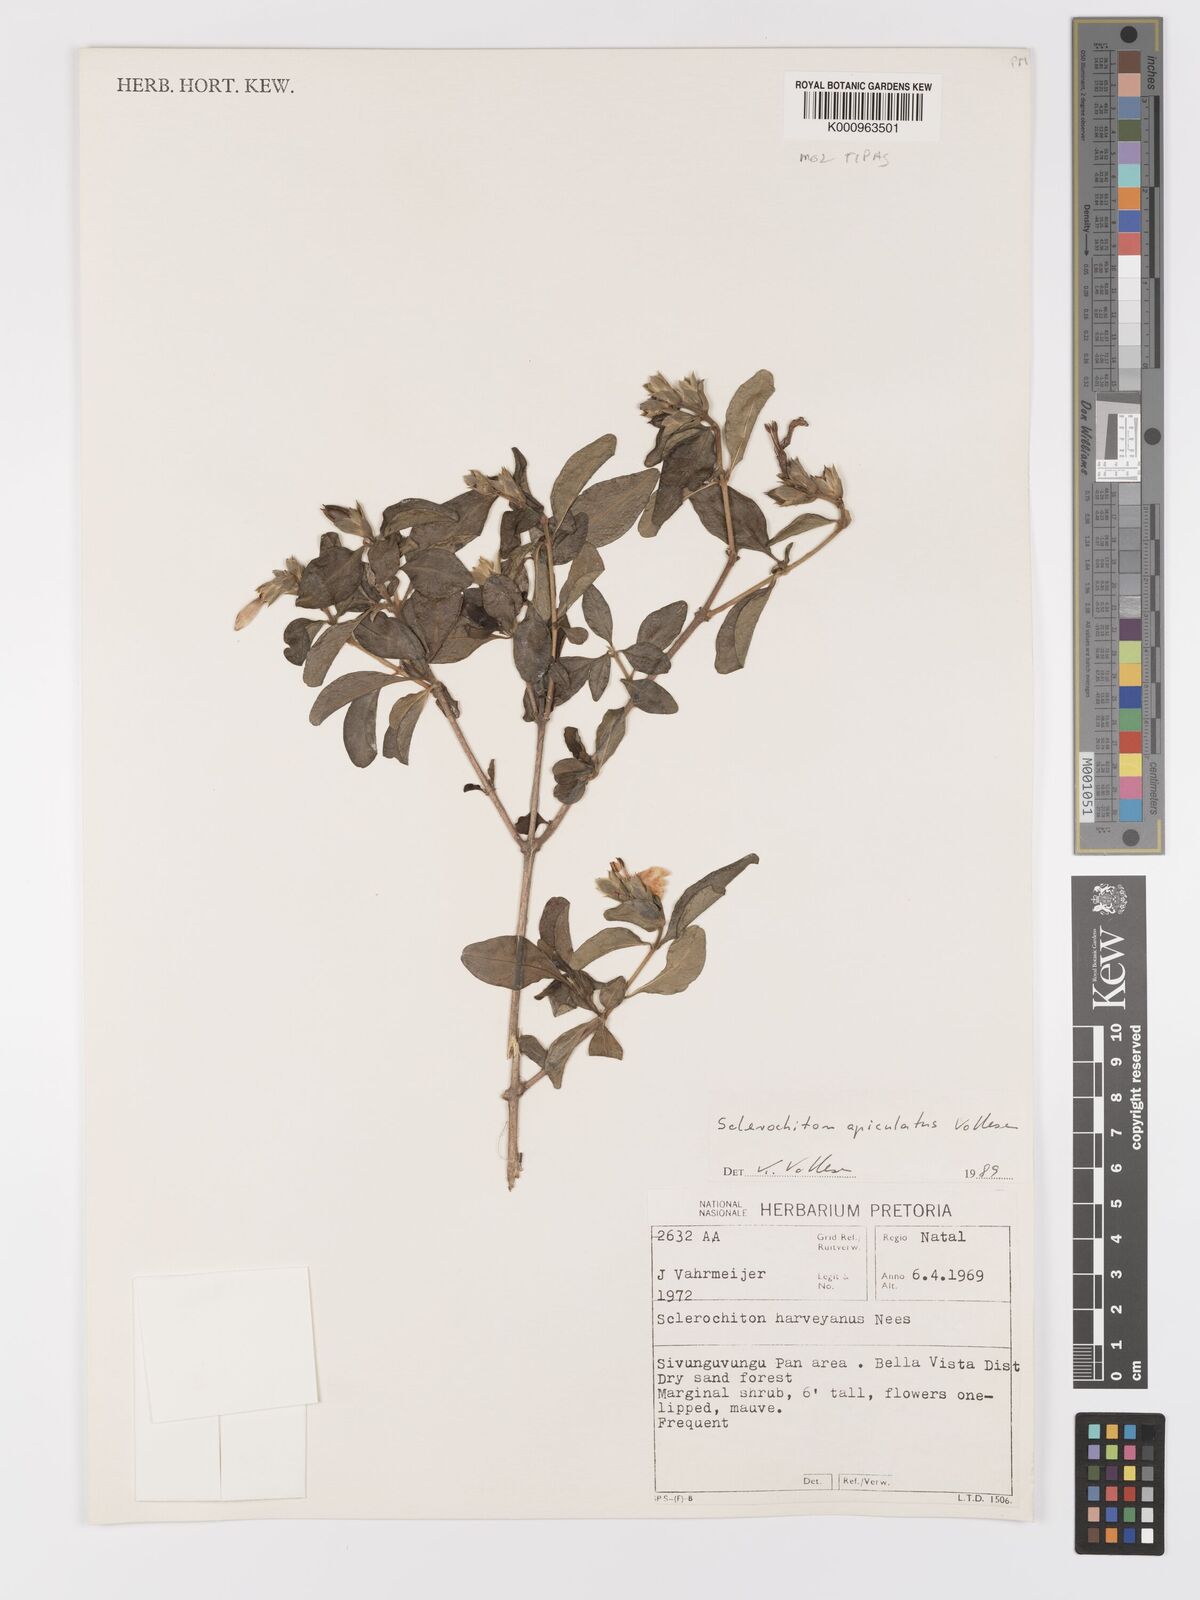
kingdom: Plantae
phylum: Tracheophyta
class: Magnoliopsida
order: Lamiales
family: Acanthaceae
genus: Sclerochiton
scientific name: Sclerochiton apiculatus
